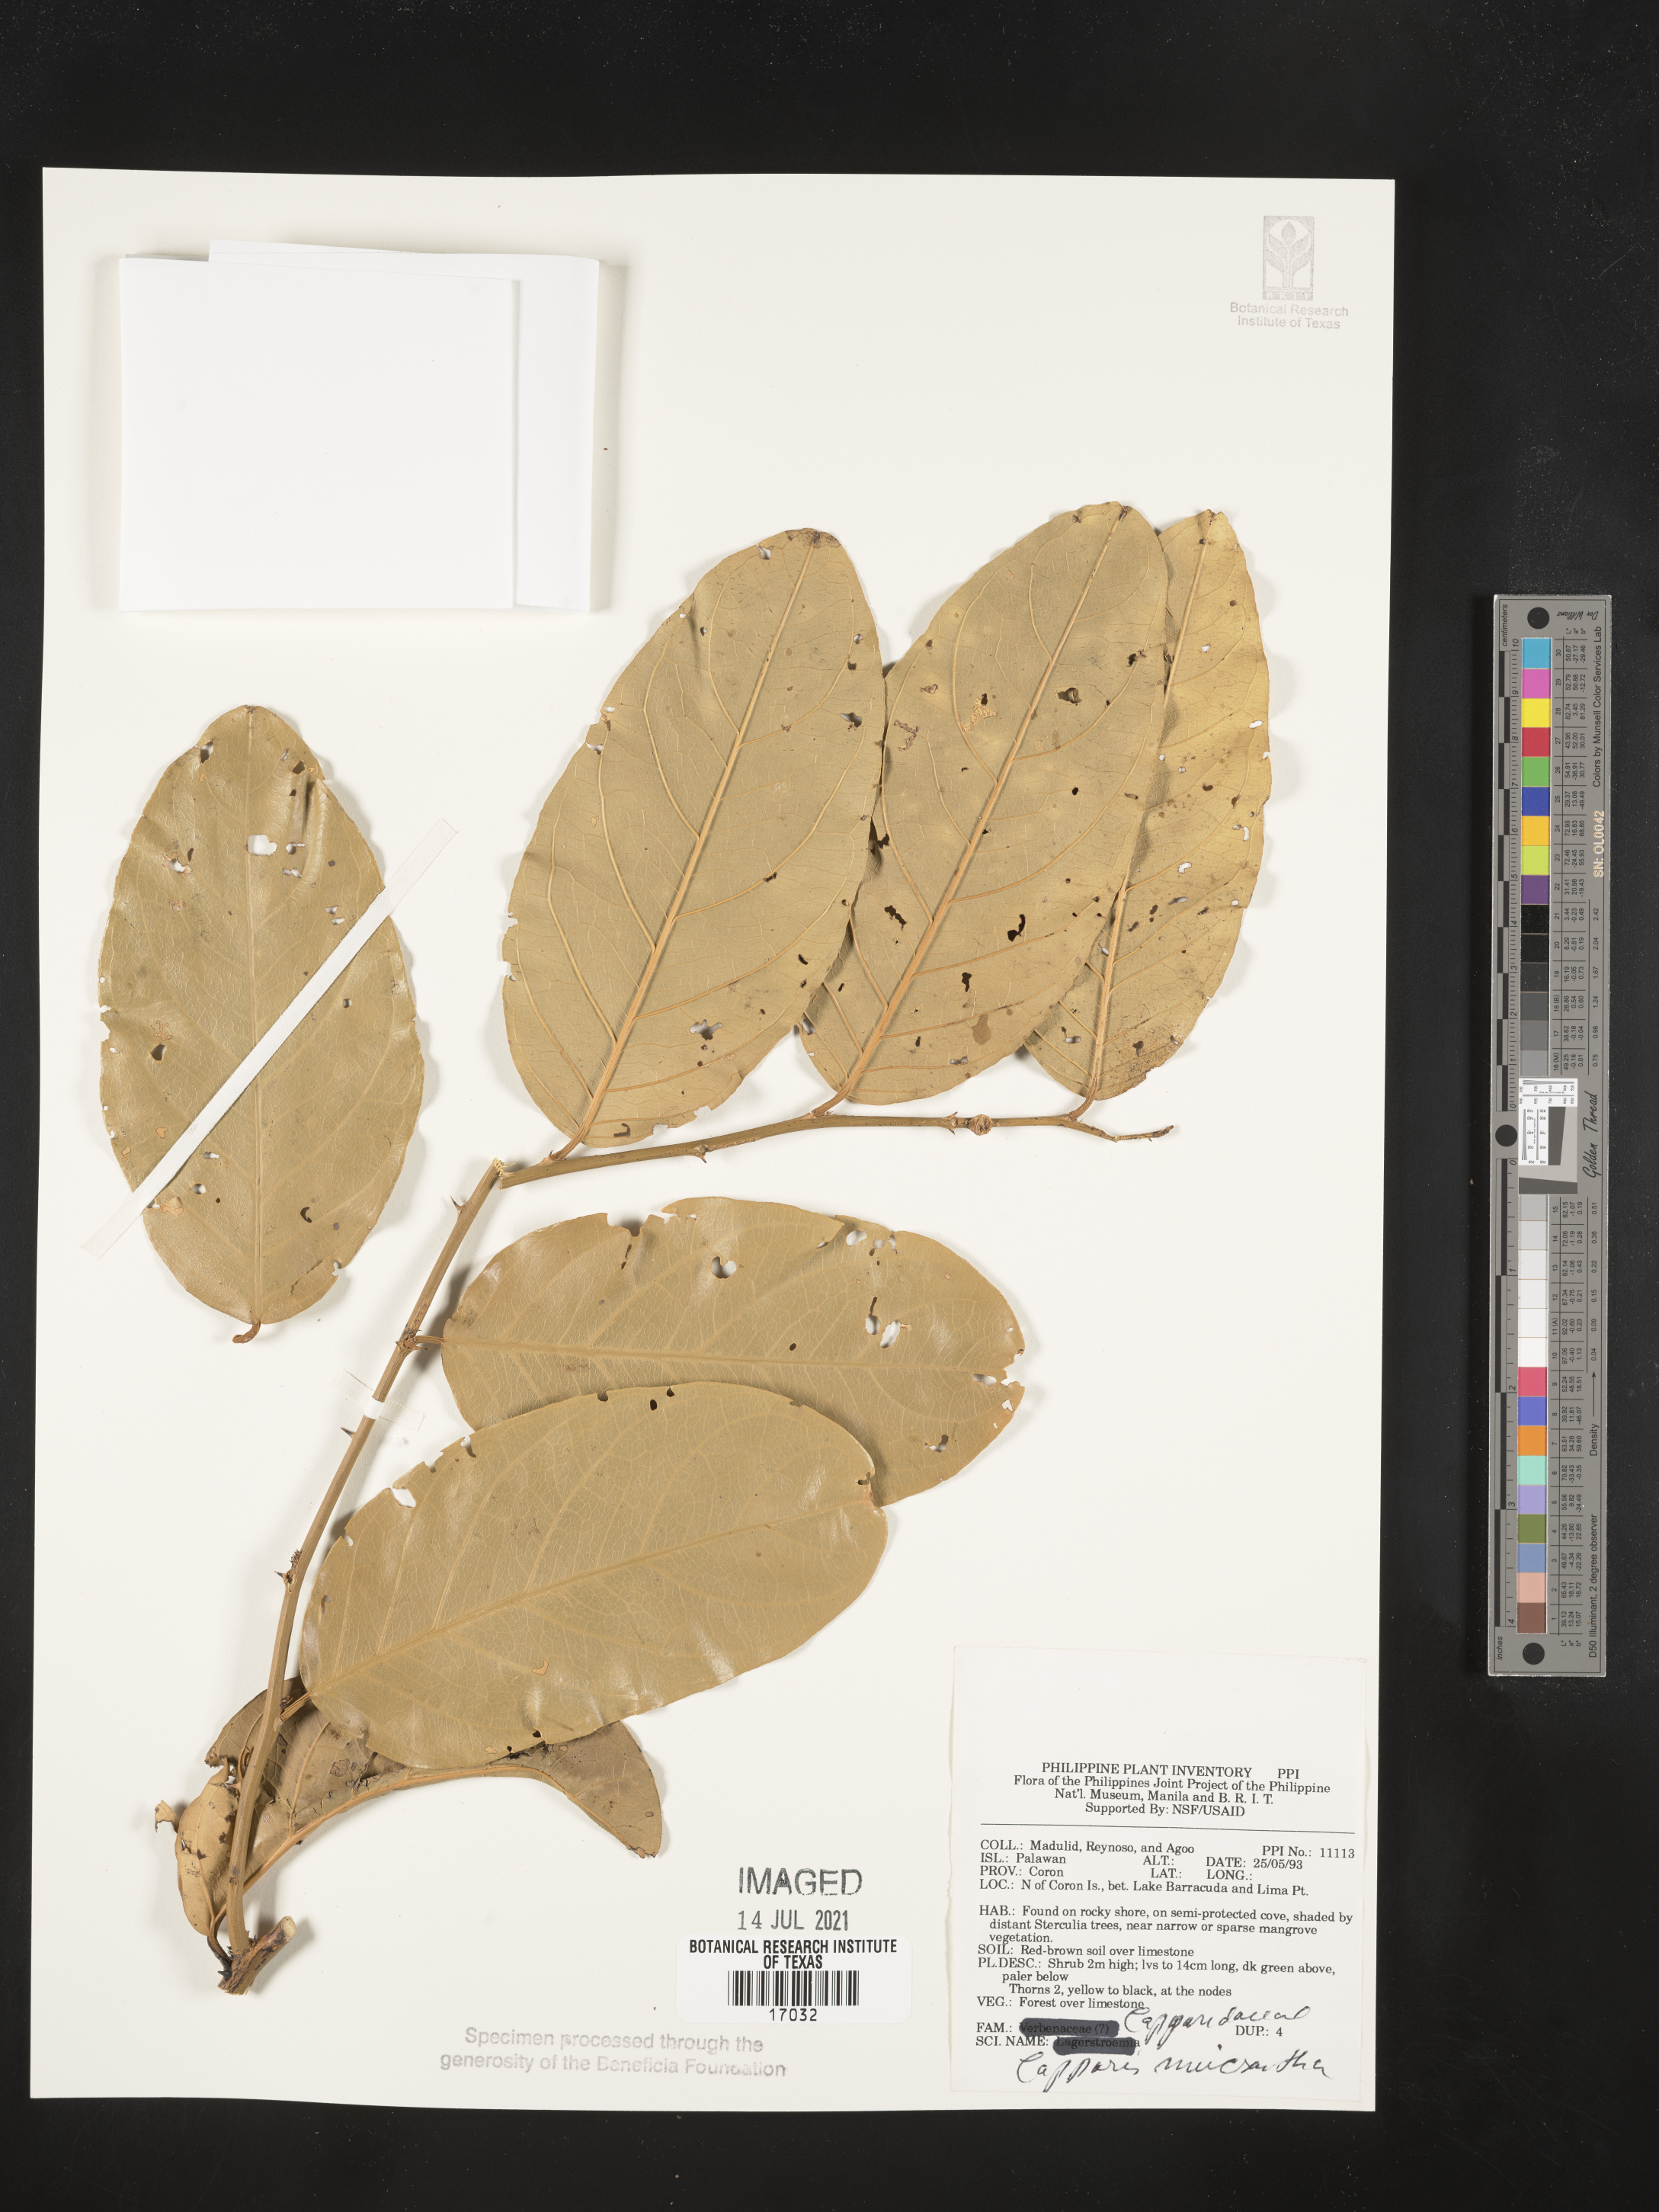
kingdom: Plantae
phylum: Tracheophyta
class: Magnoliopsida
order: Brassicales
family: Capparaceae
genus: Capparis
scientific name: Capparis micrantha
